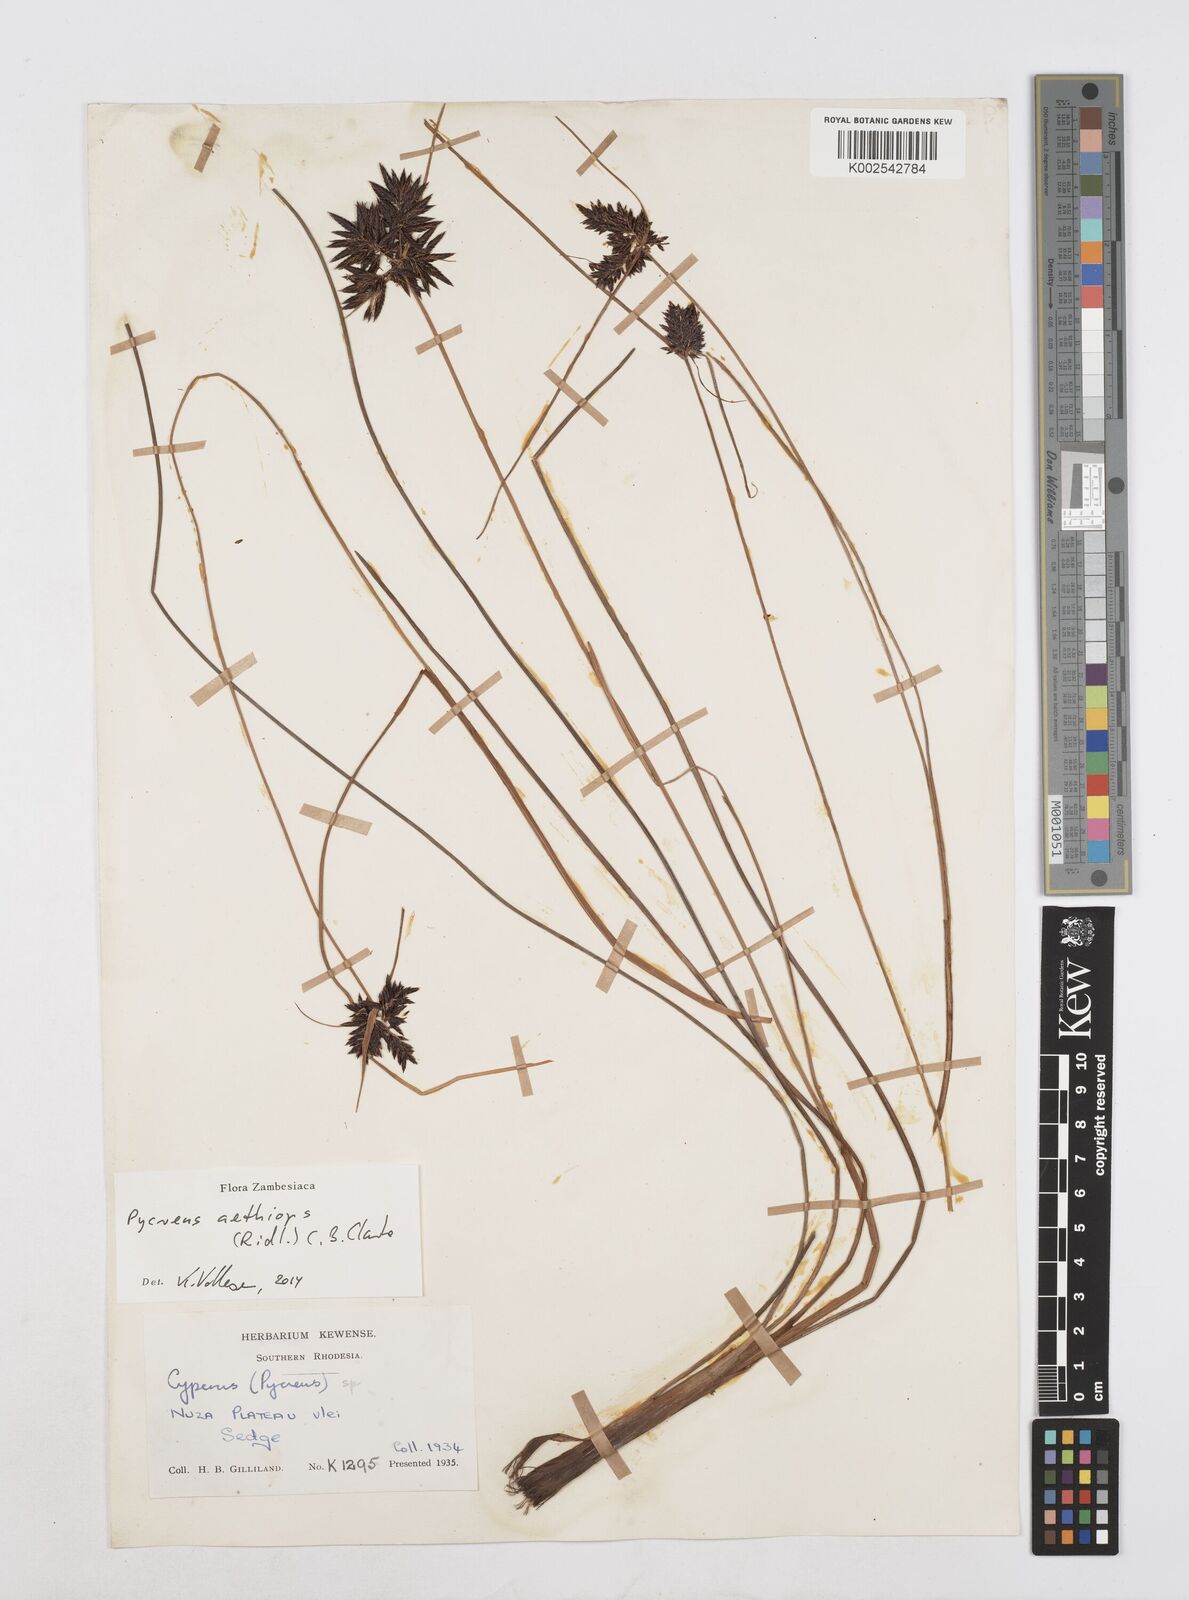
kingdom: Plantae
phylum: Tracheophyta
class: Liliopsida
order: Poales
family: Cyperaceae
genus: Cyperus
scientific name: Cyperus aethiops
